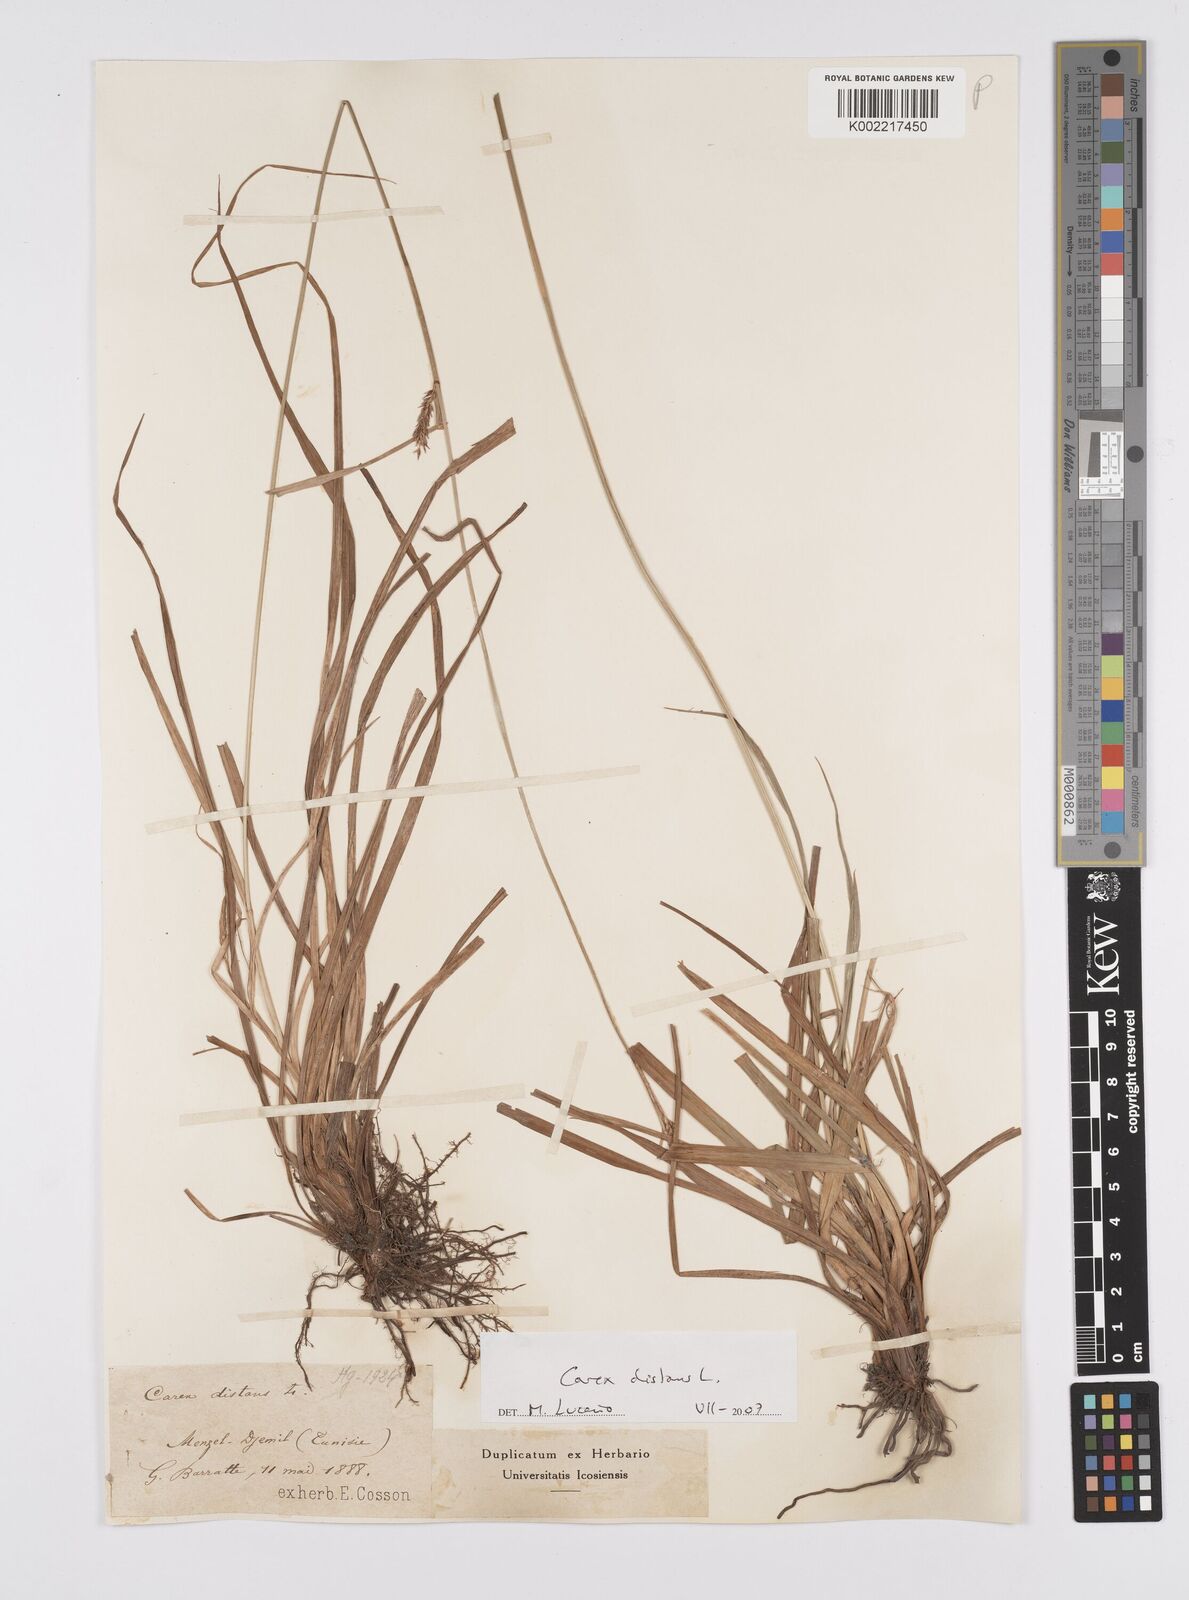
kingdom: Plantae
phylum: Tracheophyta
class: Liliopsida
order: Poales
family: Cyperaceae
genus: Carex
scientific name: Carex distans
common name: Distant sedge
